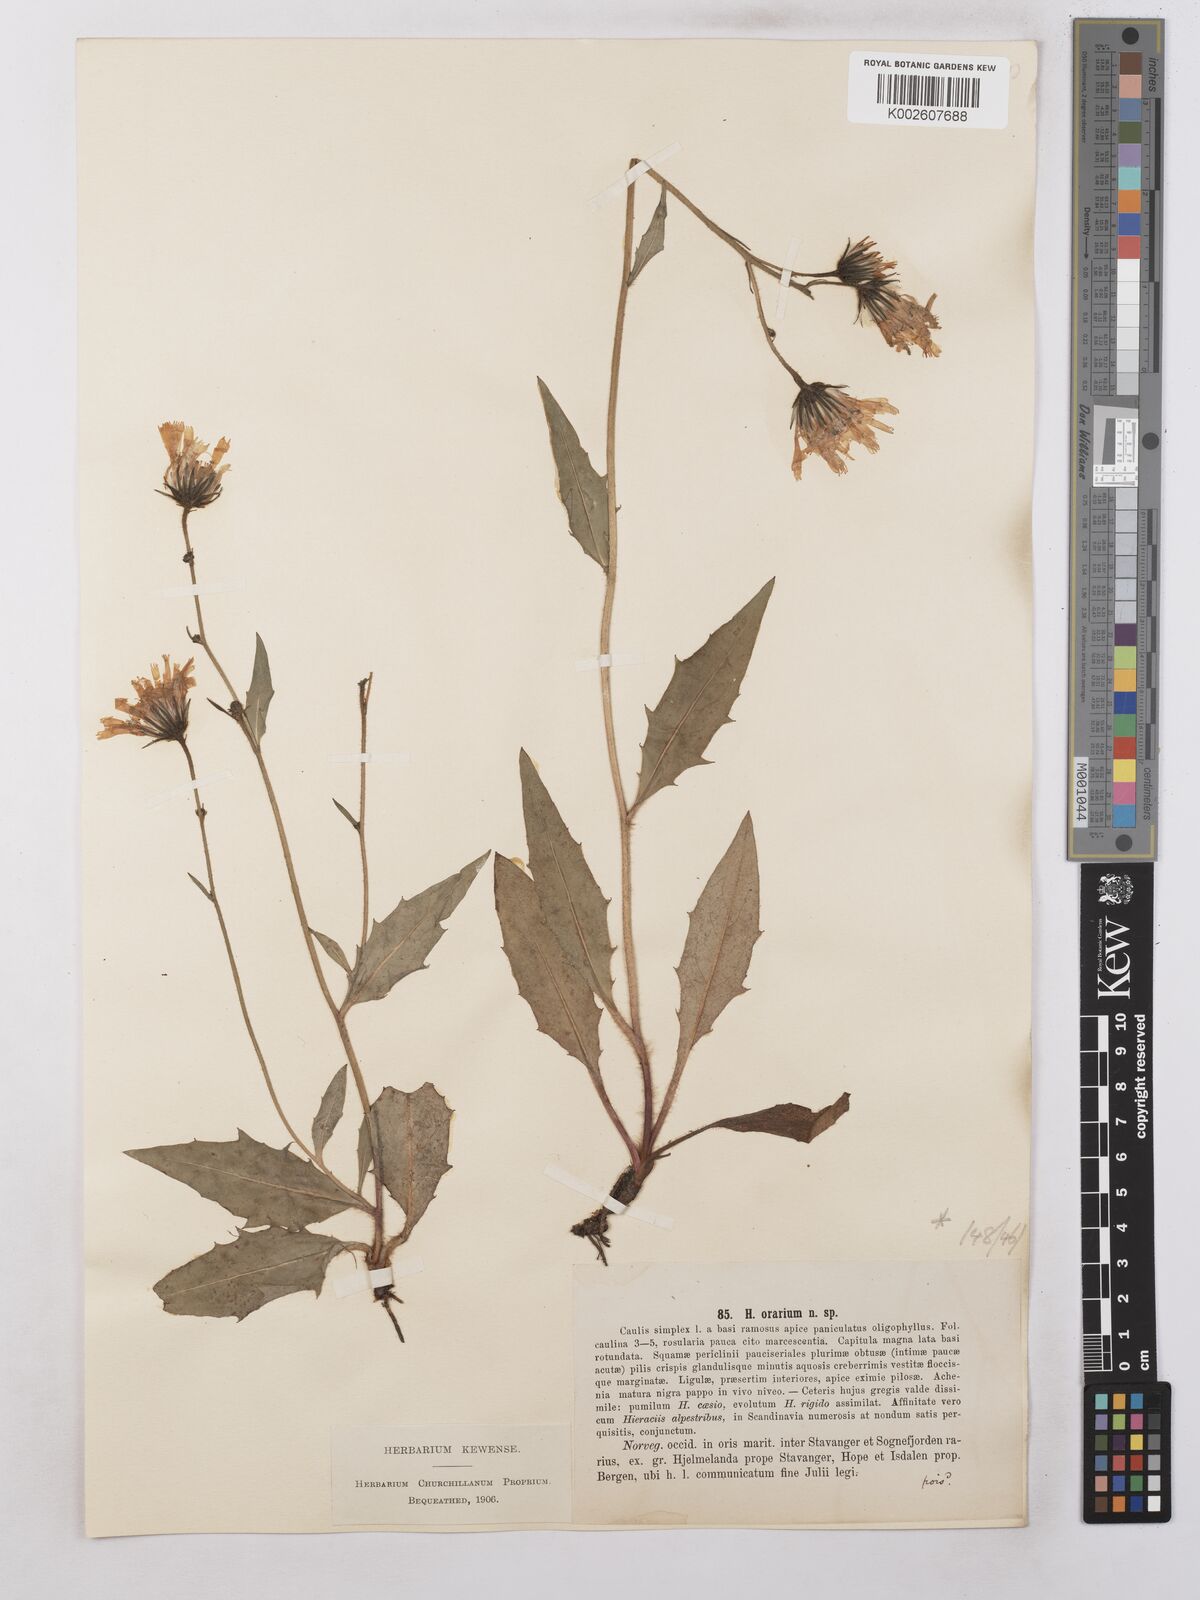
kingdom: Plantae
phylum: Tracheophyta
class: Magnoliopsida
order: Asterales
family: Asteraceae
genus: Hieracium
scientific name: Hieracium subramosum
